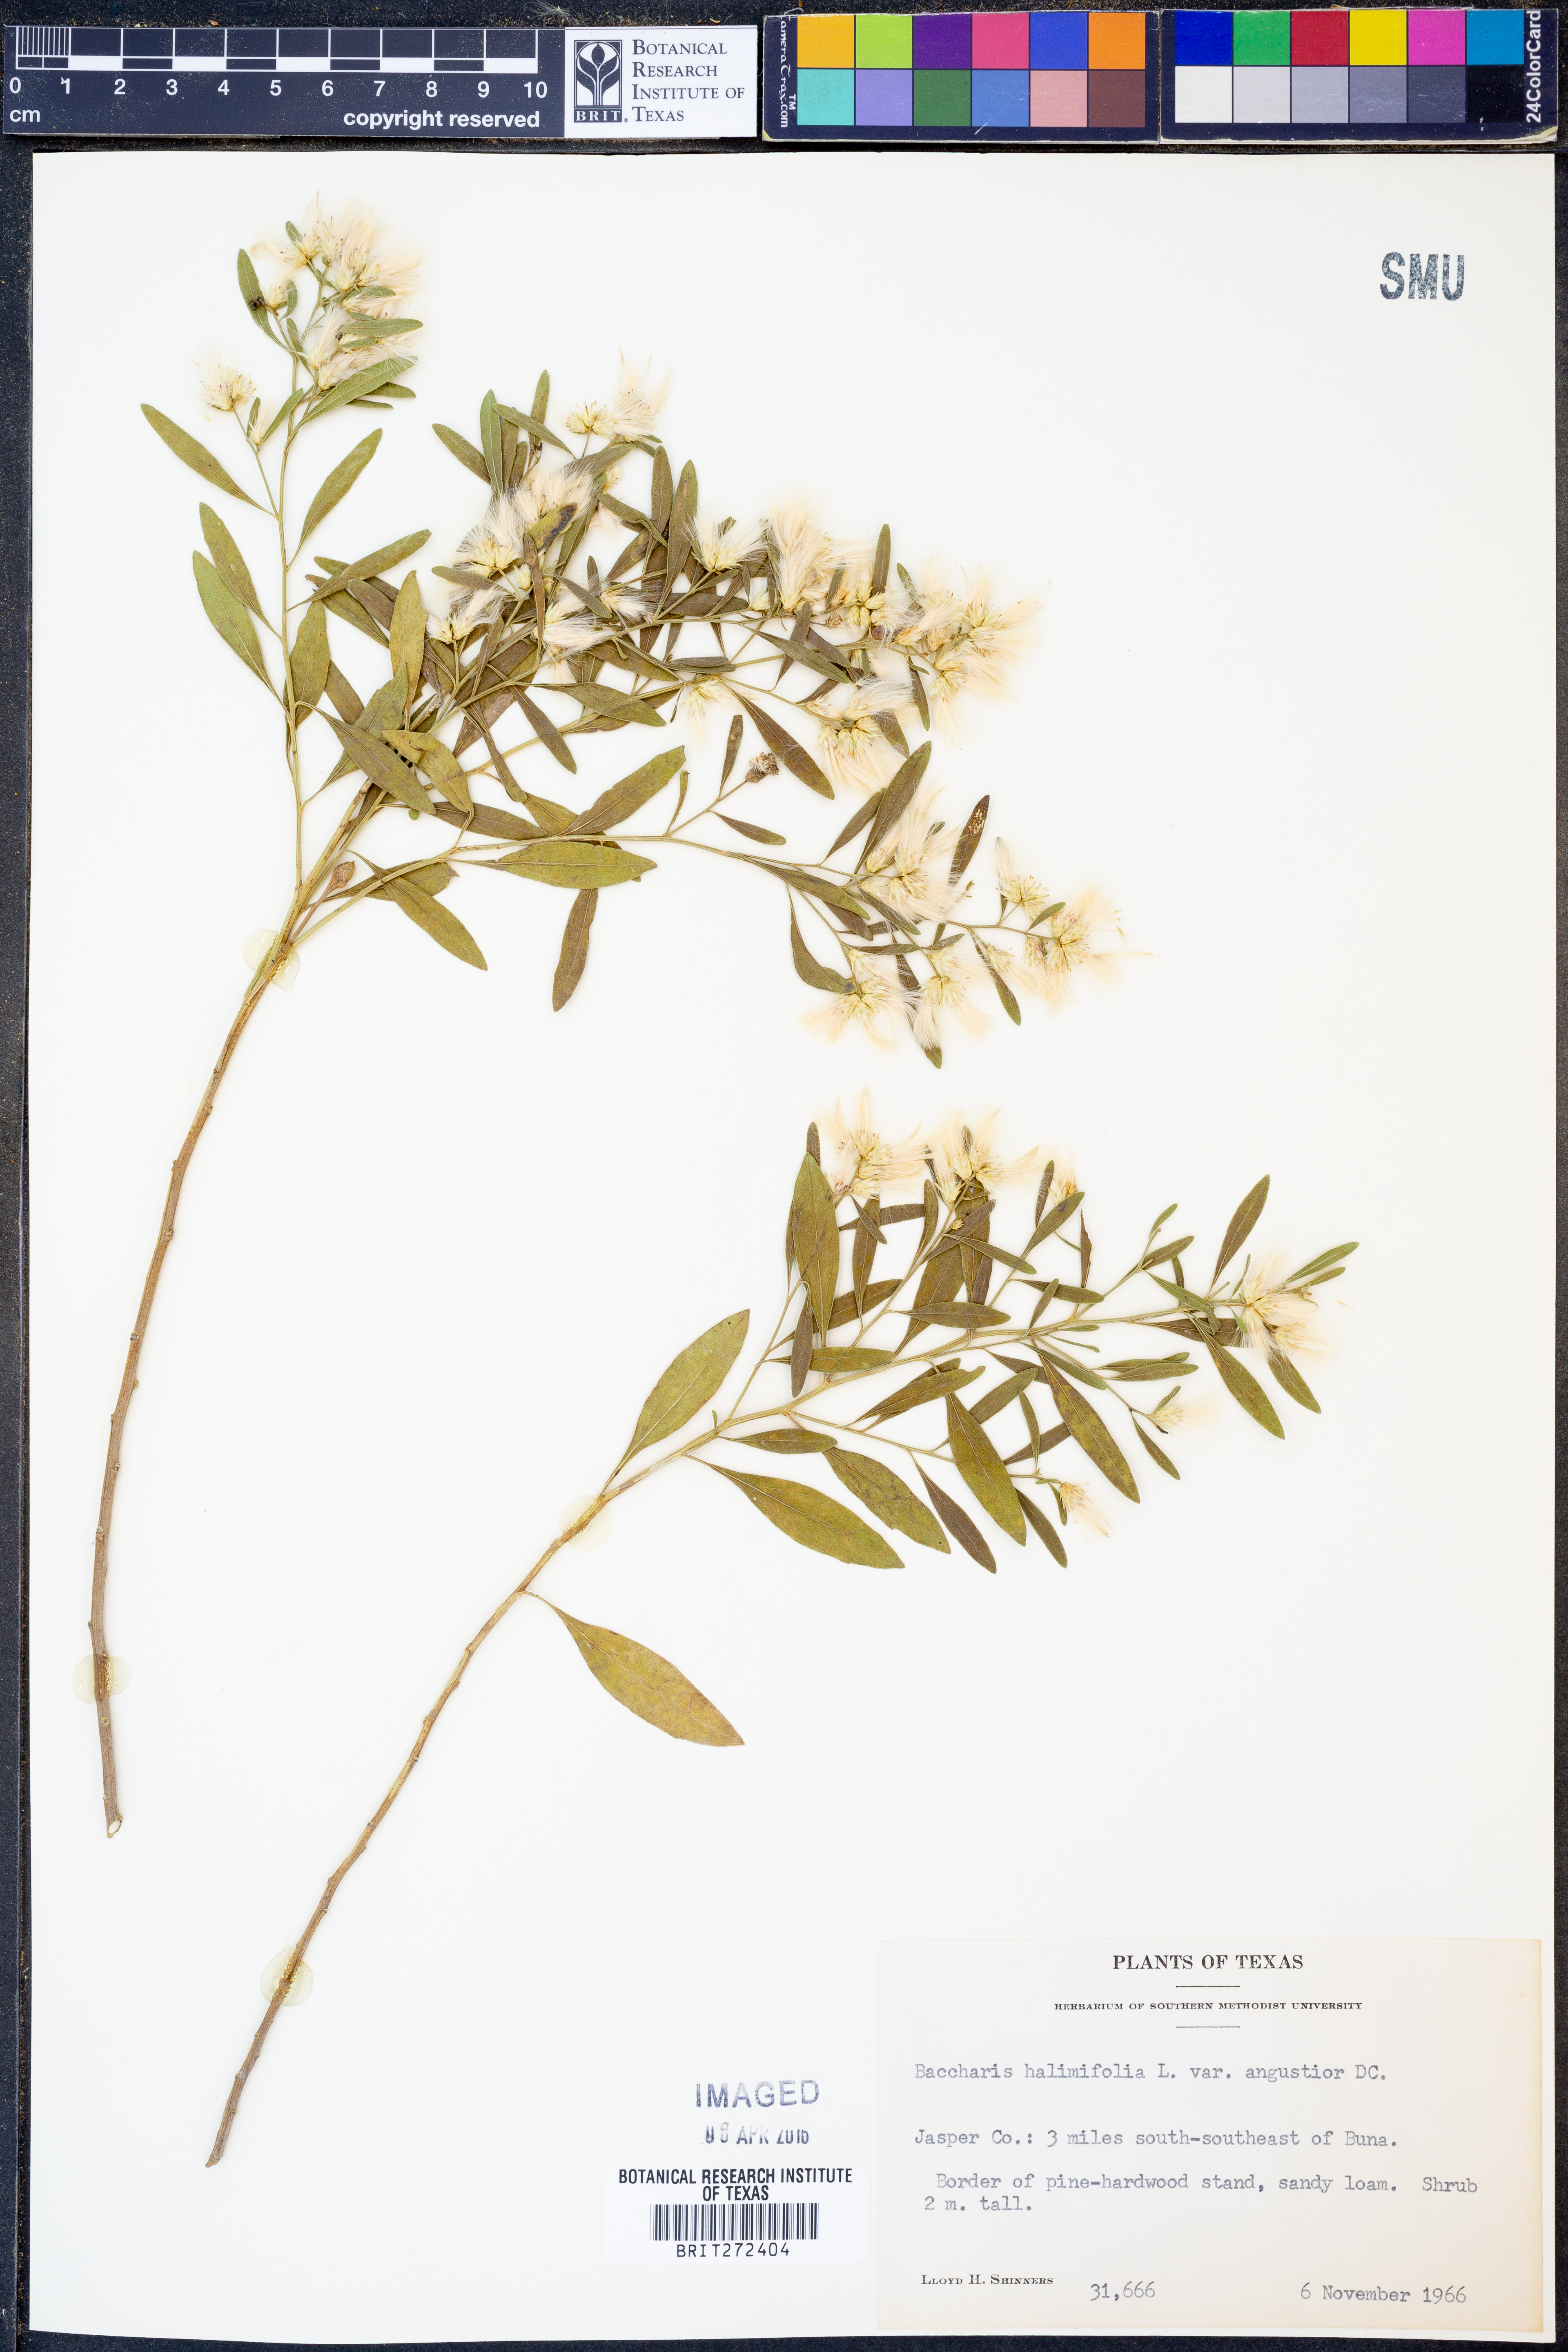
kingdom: Plantae
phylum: Tracheophyta
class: Magnoliopsida
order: Asterales
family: Asteraceae
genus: Baccharis
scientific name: Baccharis halimifolia
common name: Eastern baccharis
